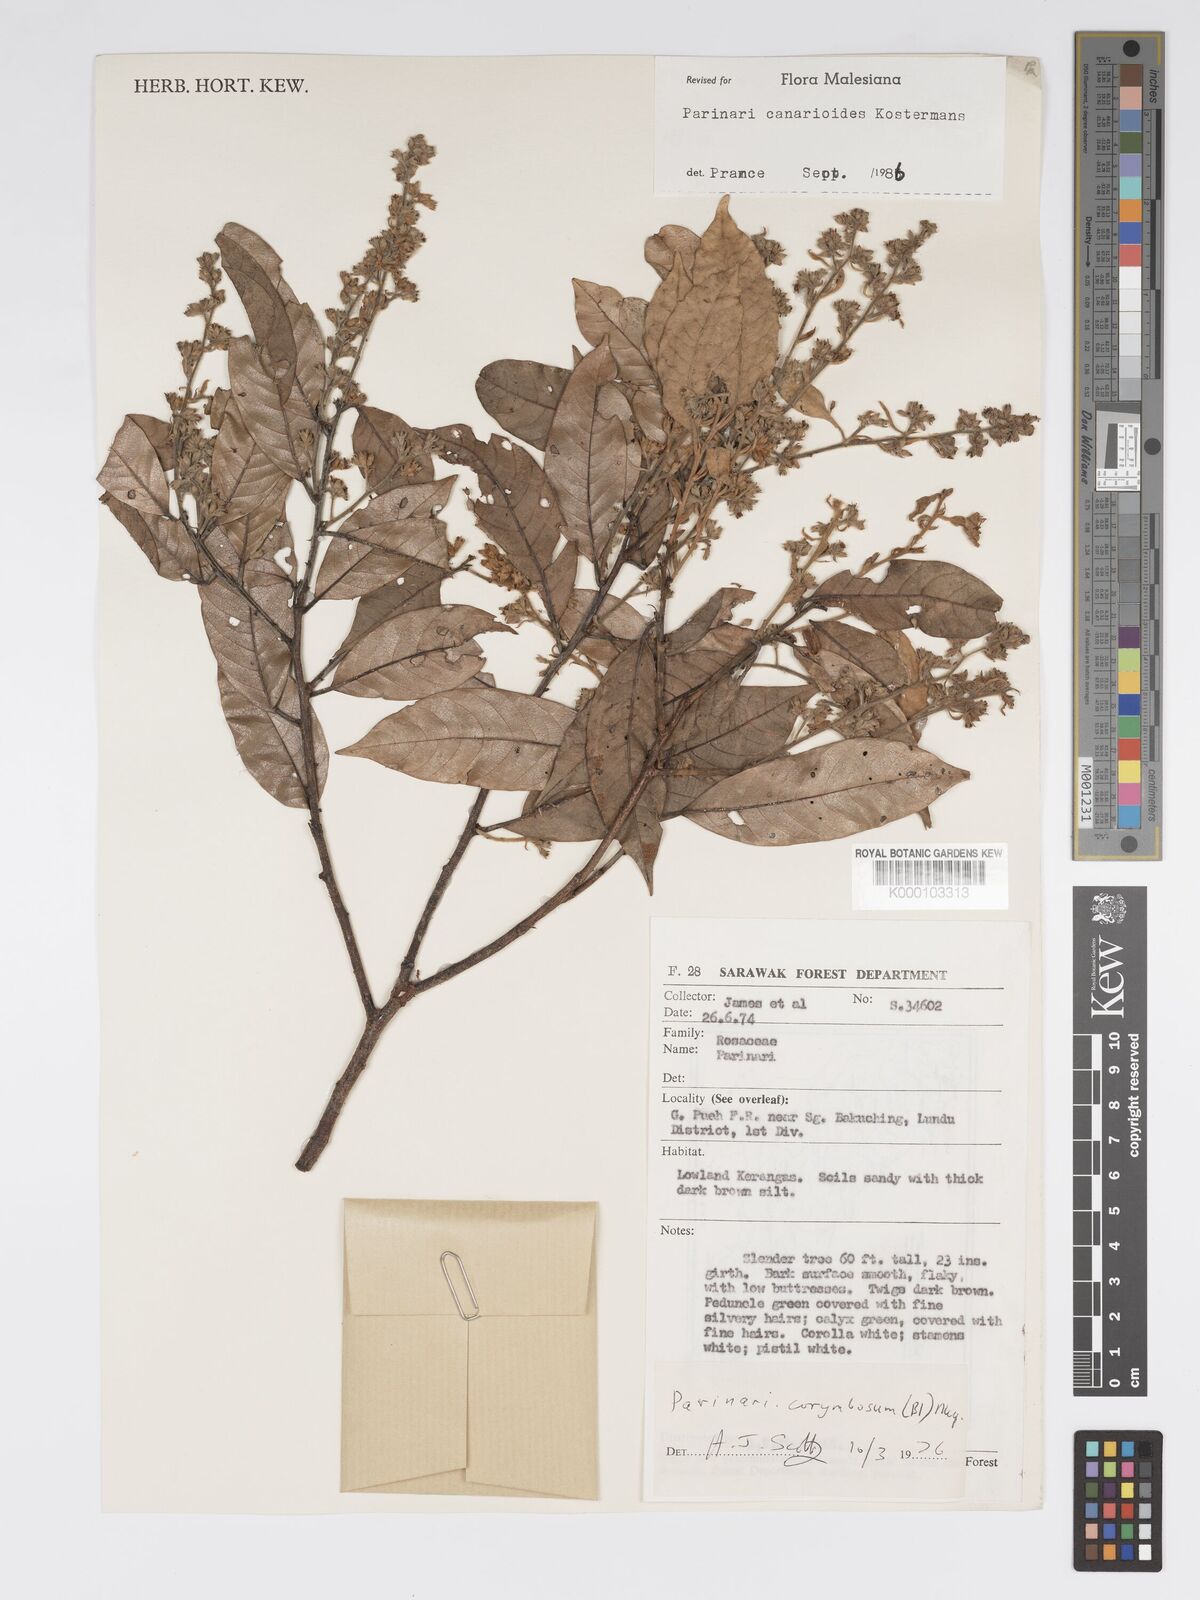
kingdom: Plantae
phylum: Tracheophyta
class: Magnoliopsida
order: Malpighiales
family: Chrysobalanaceae
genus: Parinari
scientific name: Parinari canarioides
